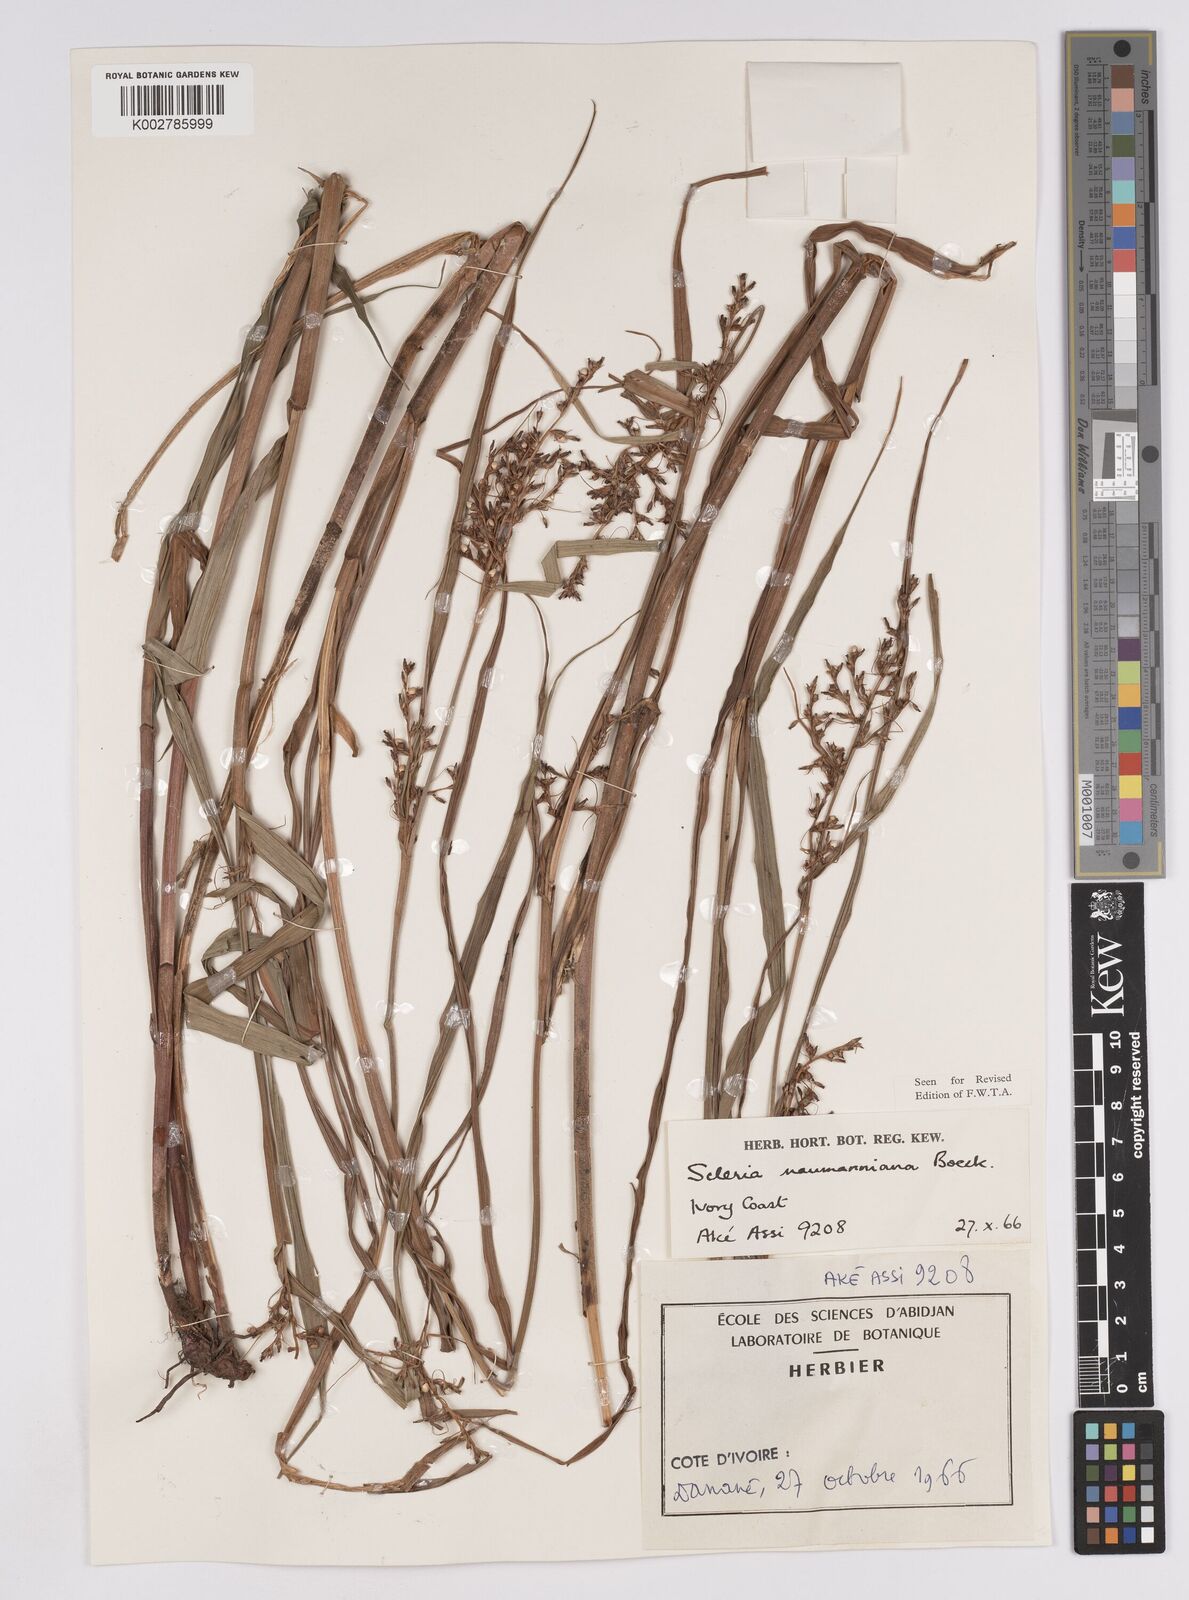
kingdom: Plantae
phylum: Tracheophyta
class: Liliopsida
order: Poales
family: Cyperaceae
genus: Scleria
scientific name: Scleria naumanniana
